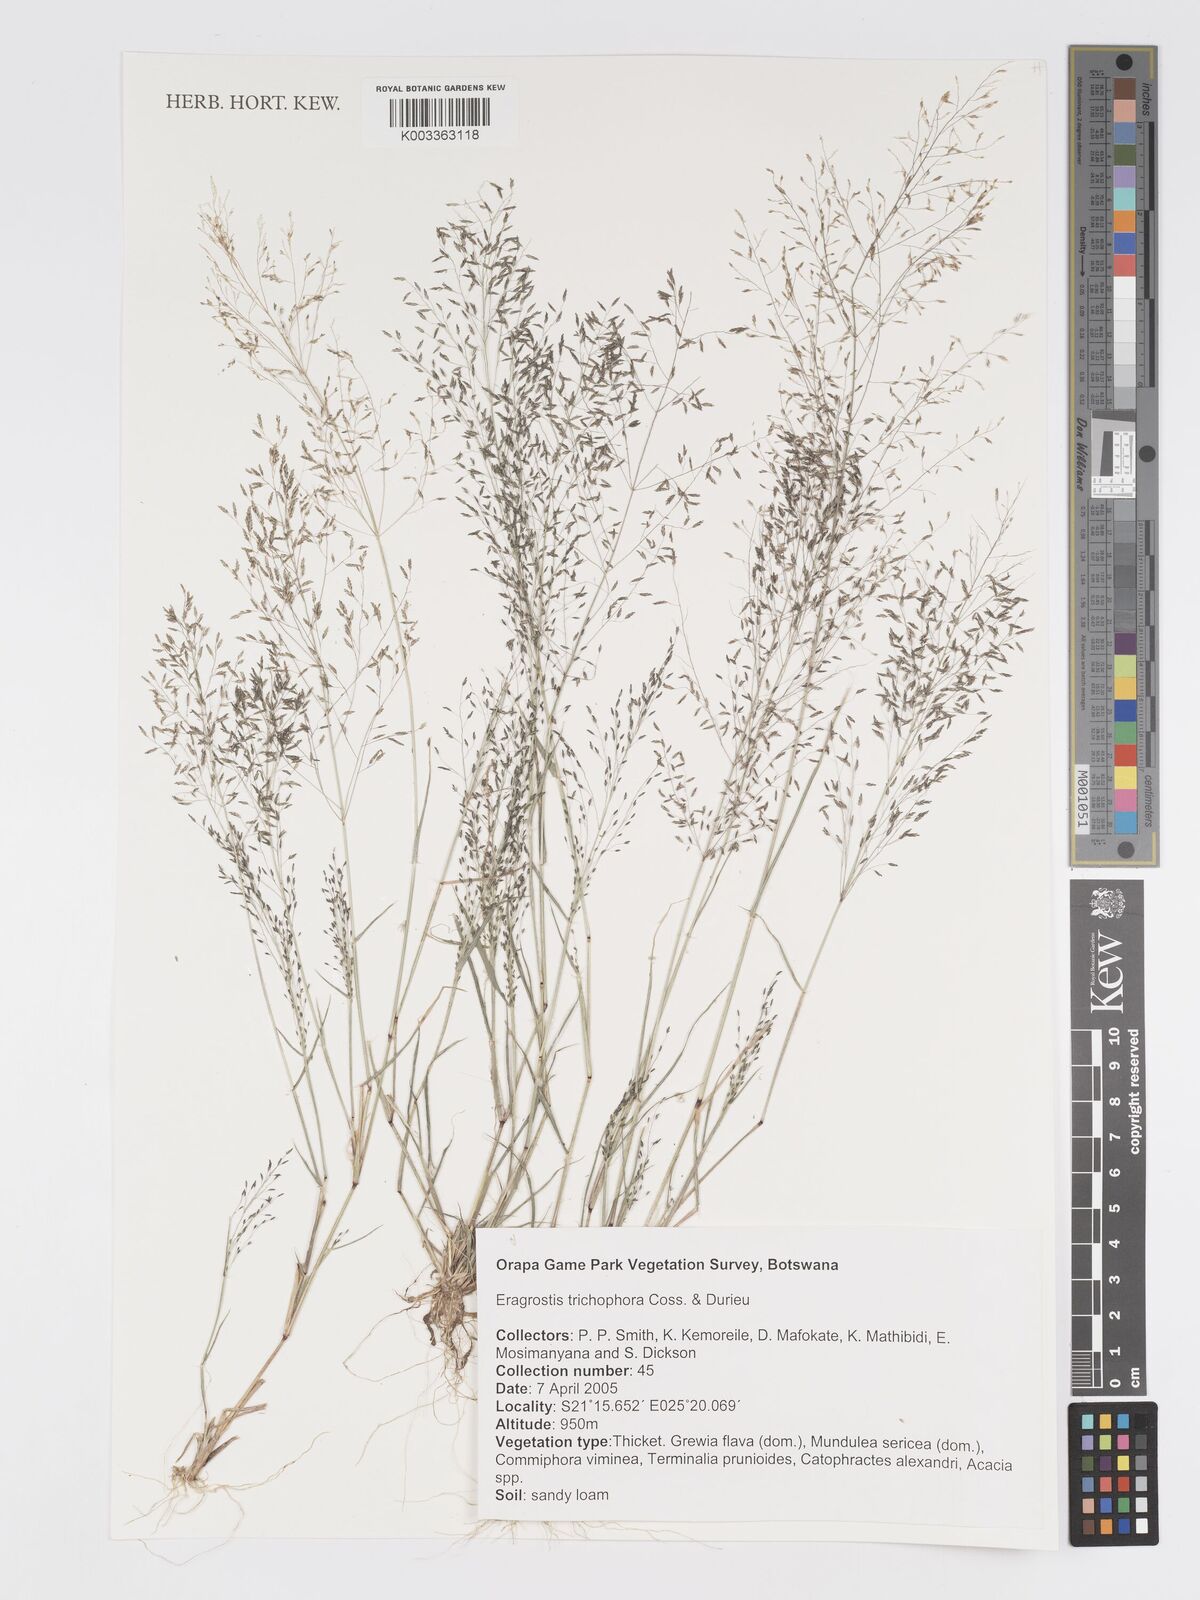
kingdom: Plantae
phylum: Tracheophyta
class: Liliopsida
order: Poales
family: Poaceae
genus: Eragrostis
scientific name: Eragrostis cylindriflora
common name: Cylinderflower lovegrass
